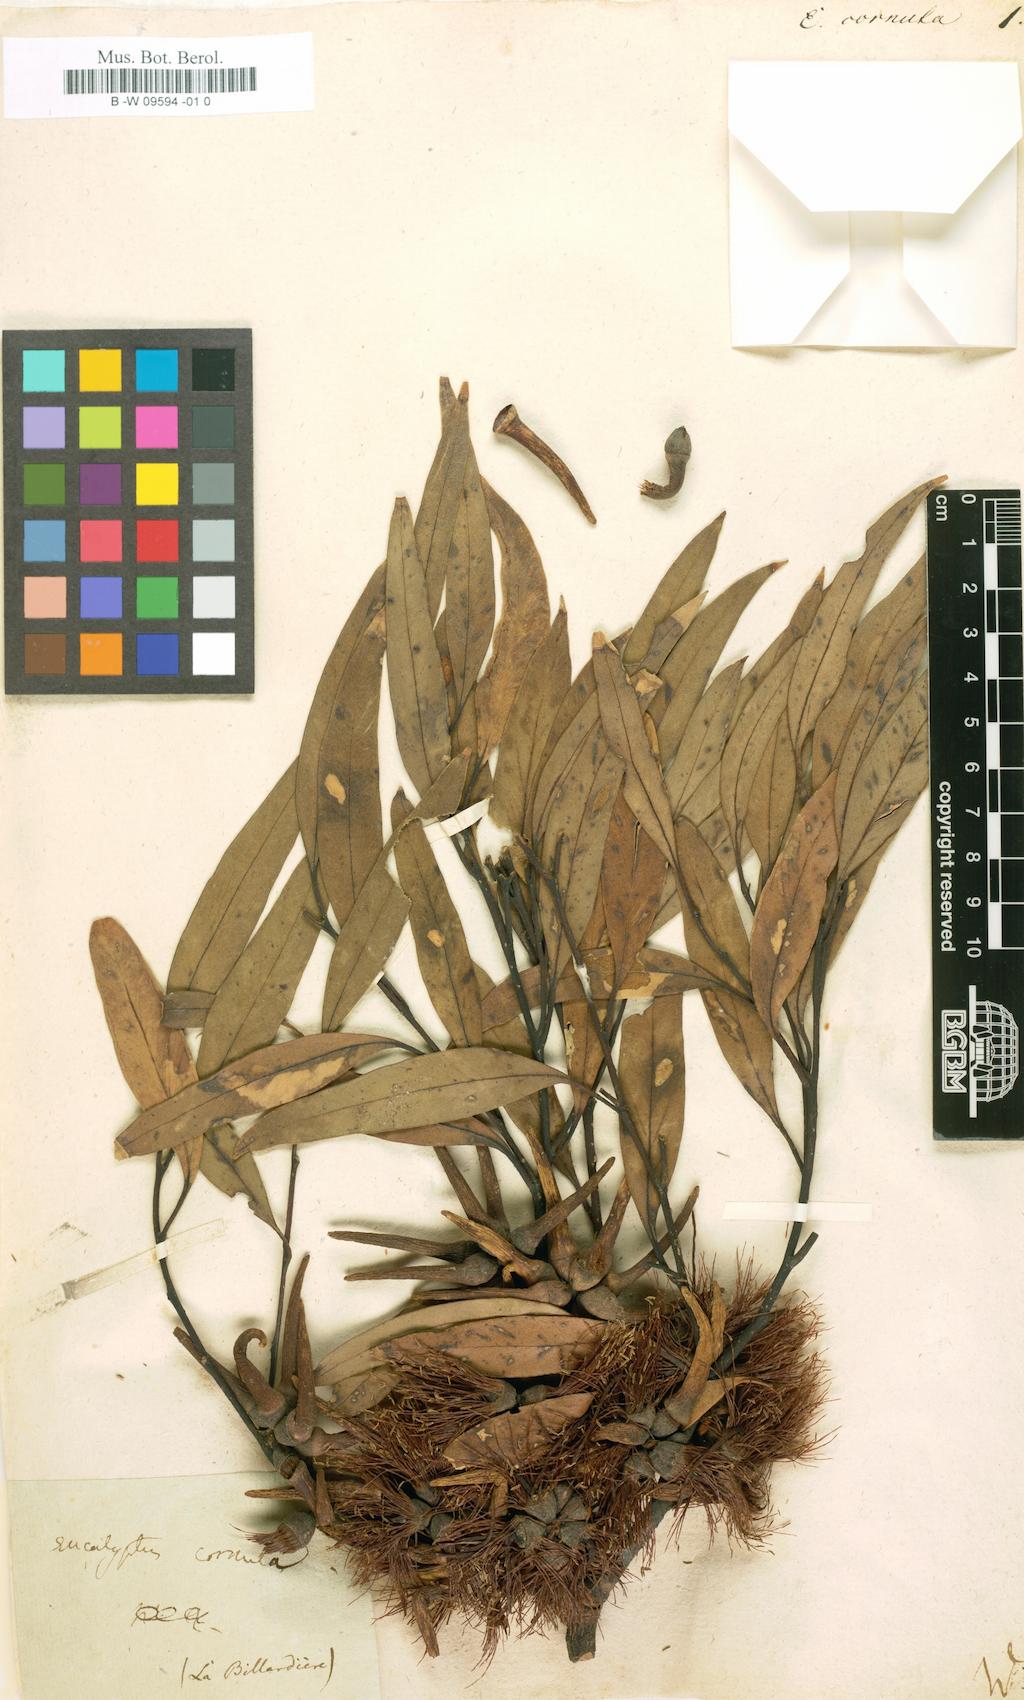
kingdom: Plantae
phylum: Tracheophyta
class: Magnoliopsida
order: Myrtales
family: Myrtaceae
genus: Eucalyptus
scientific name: Eucalyptus cornuta
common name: Yate
